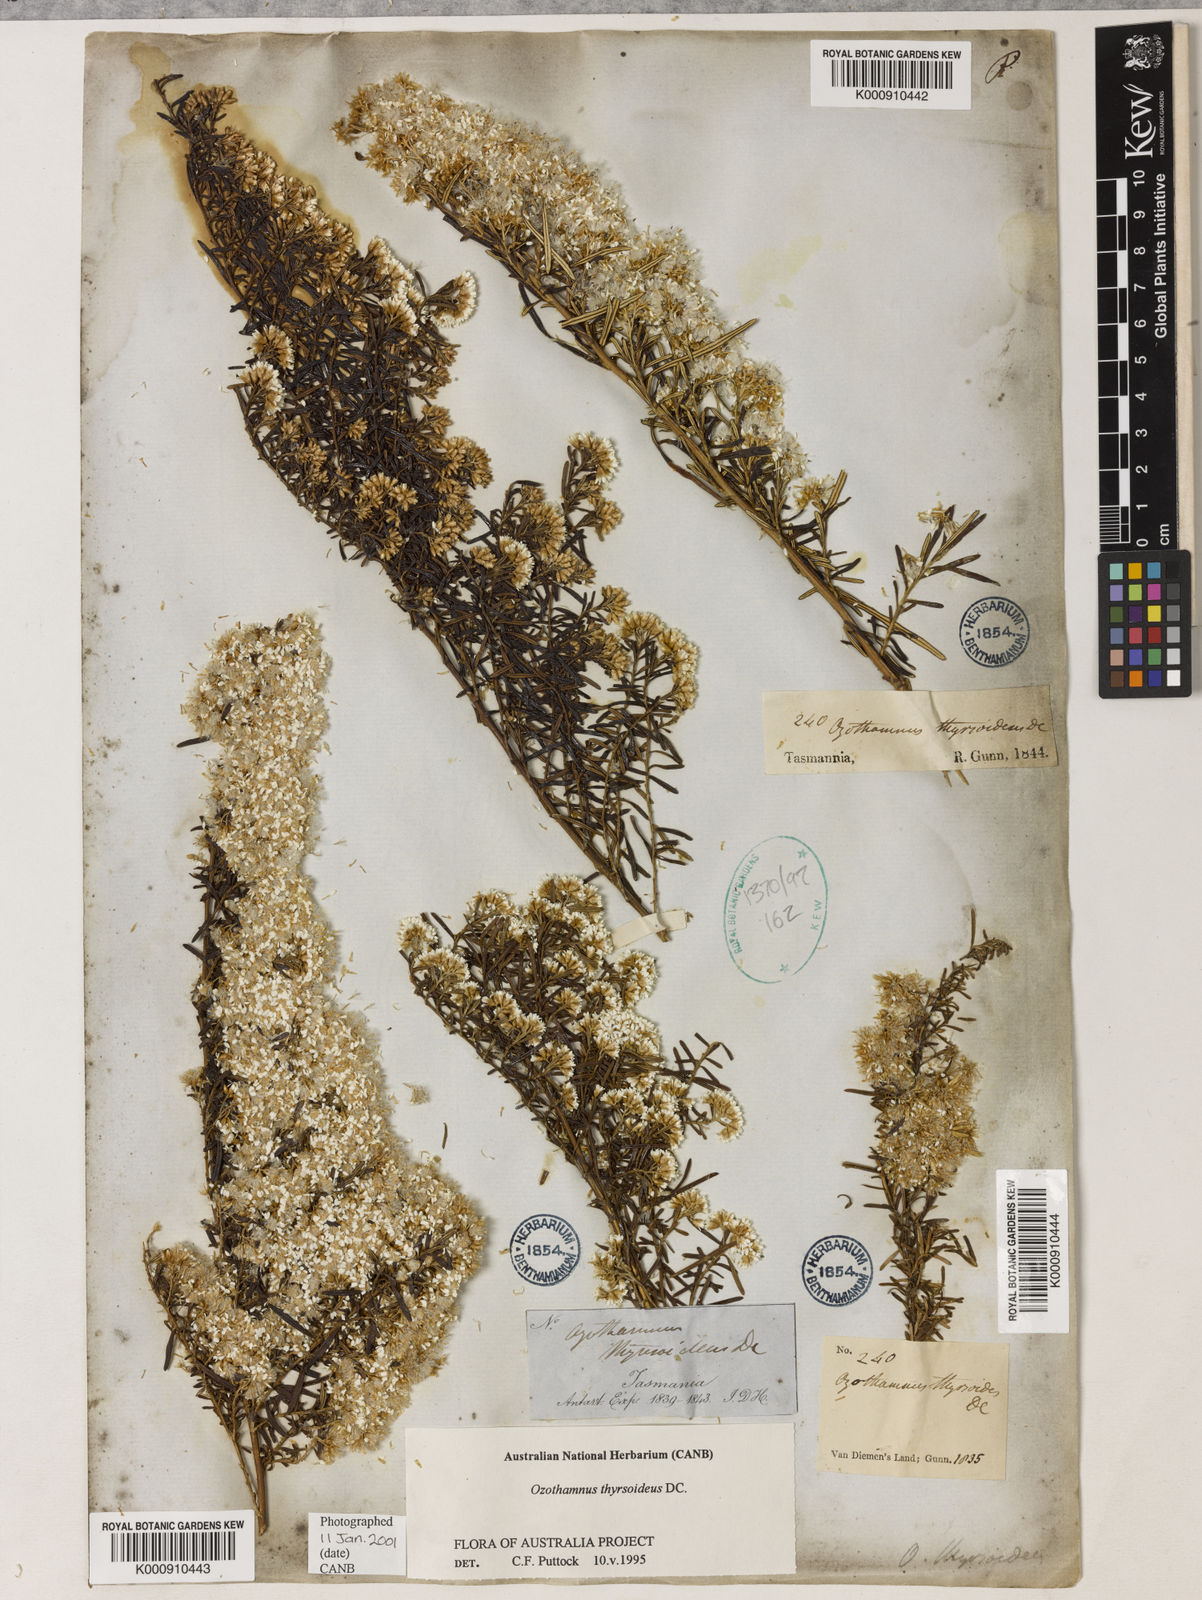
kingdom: Plantae
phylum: Tracheophyta
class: Magnoliopsida
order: Asterales
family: Asteraceae
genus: Ozothamnus
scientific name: Ozothamnus thyrsoideus
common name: Snow-in-summer
